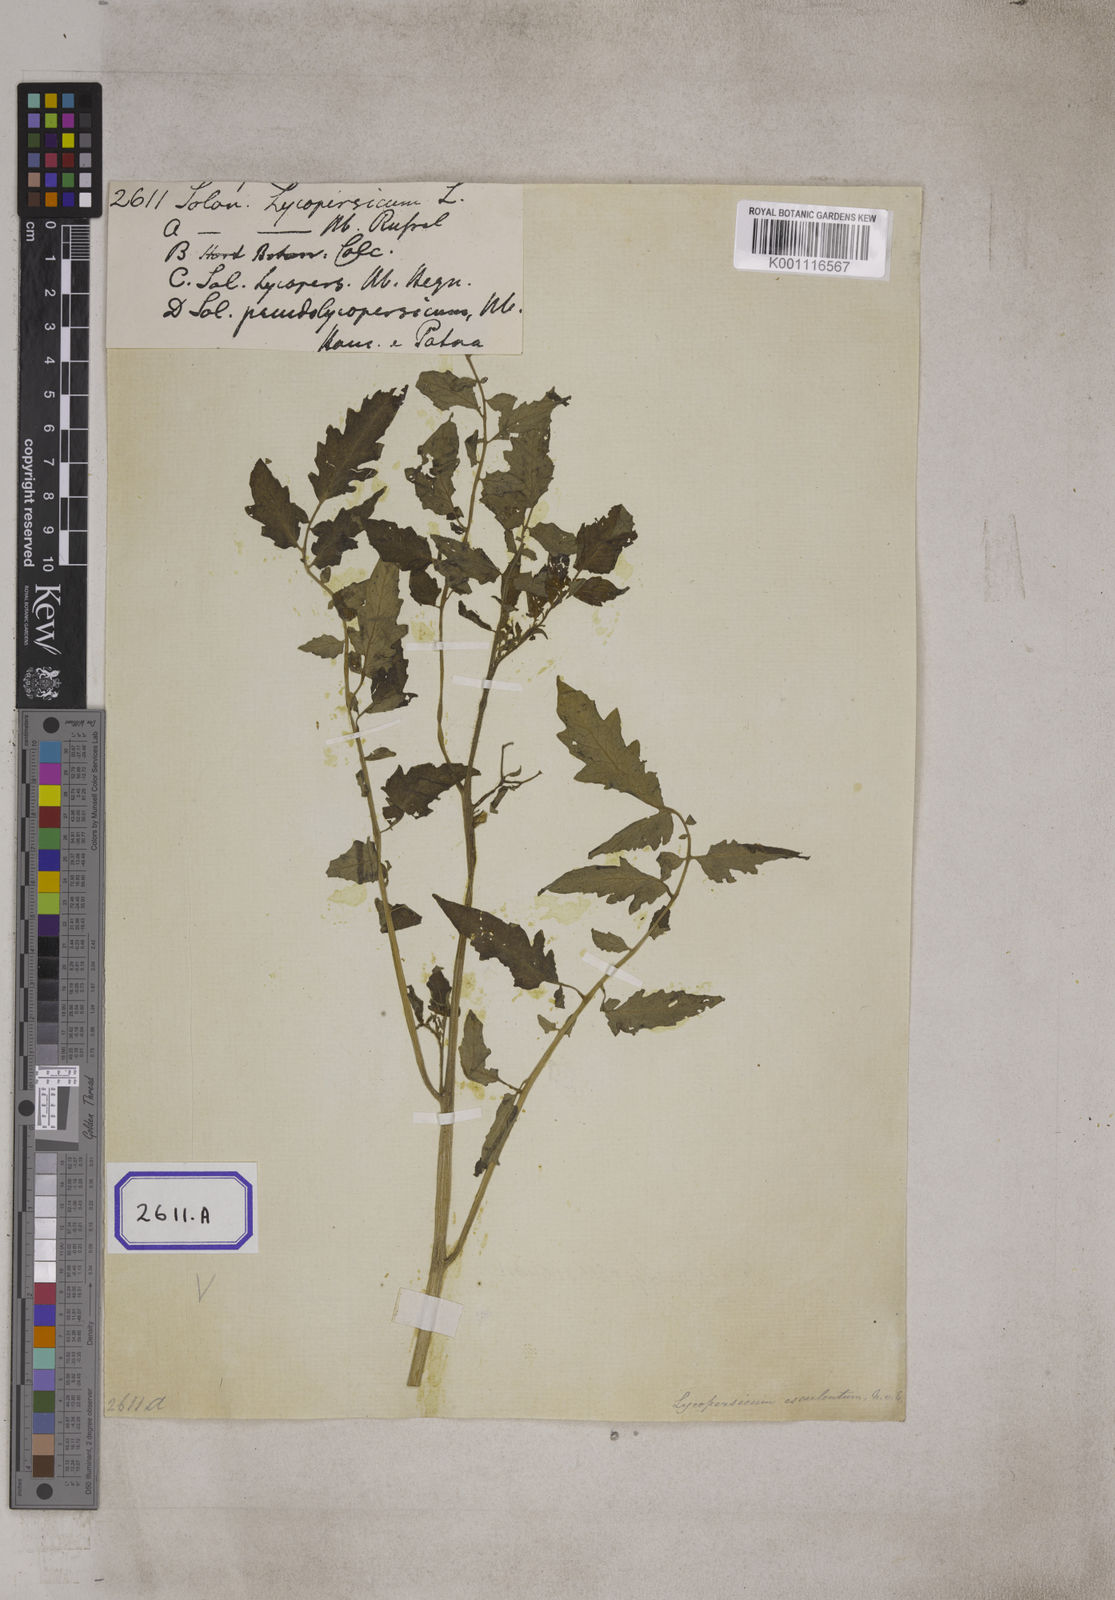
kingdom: Plantae
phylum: Tracheophyta
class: Magnoliopsida
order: Solanales
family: Solanaceae
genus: Solanum
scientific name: Solanum lycopersicum
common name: Garden tomato
